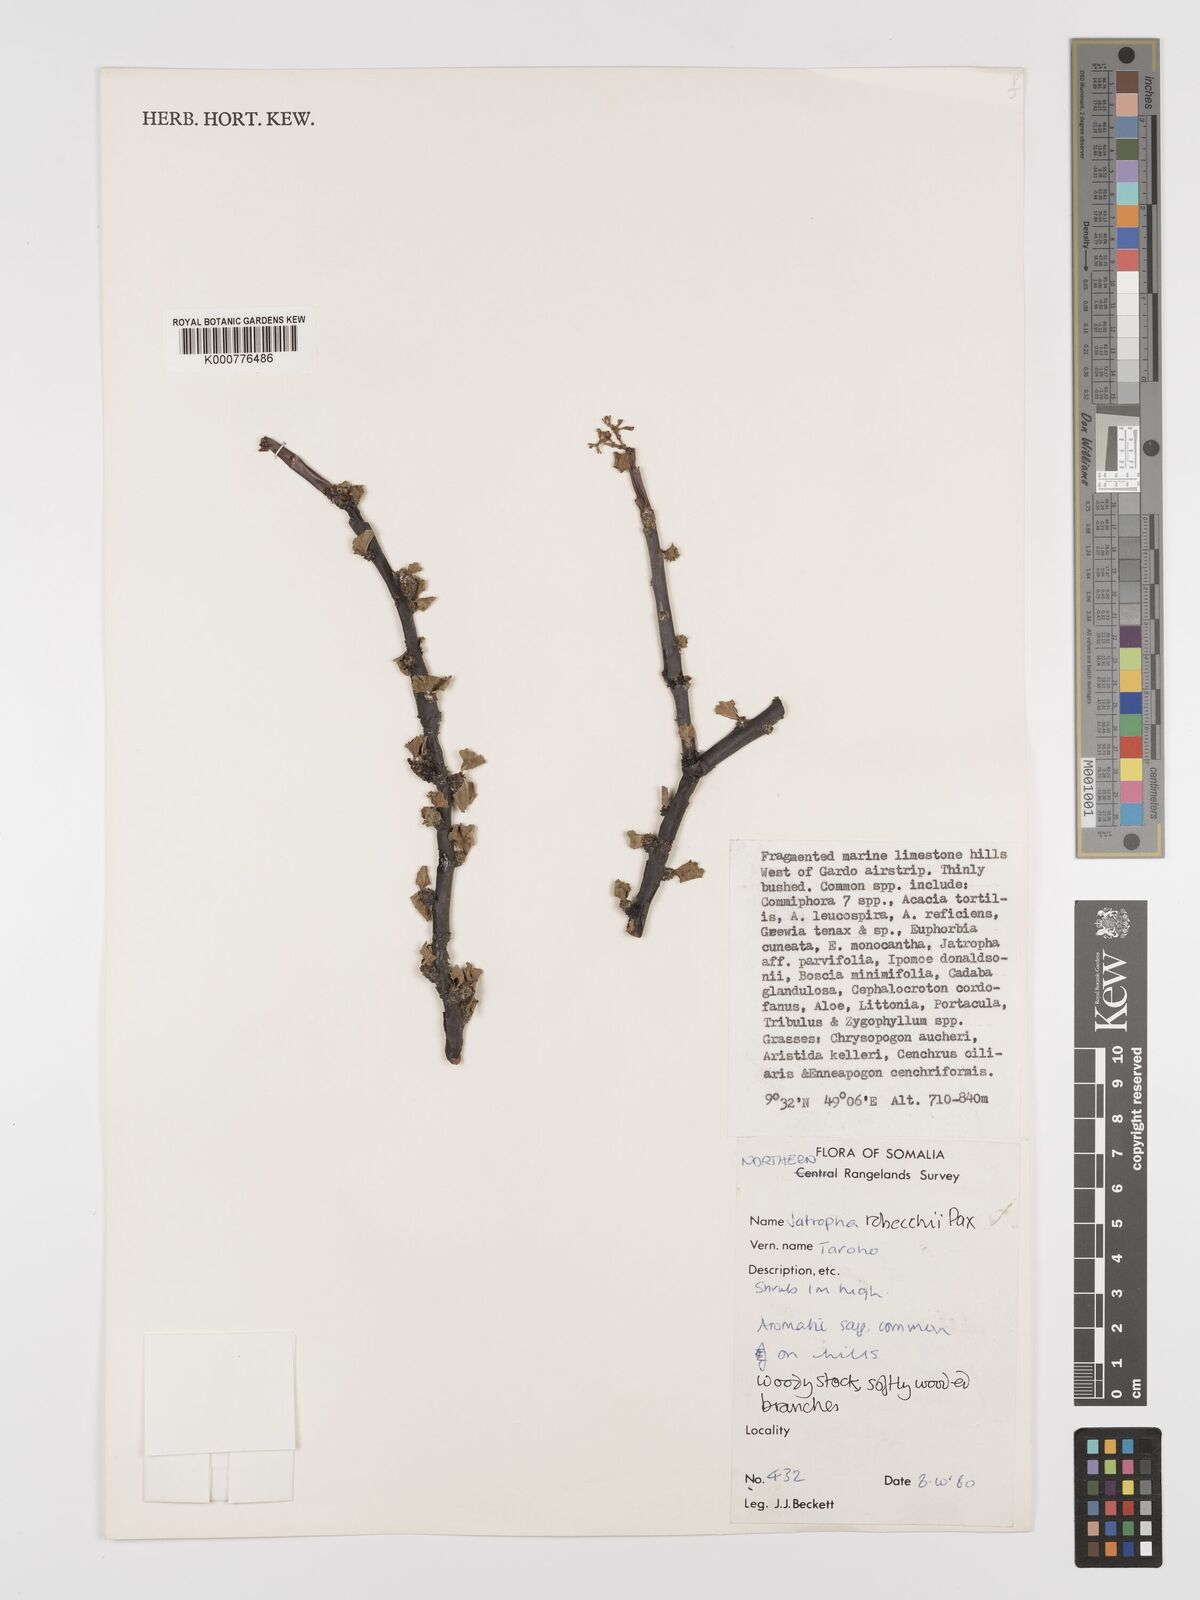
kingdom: Plantae
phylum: Tracheophyta
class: Magnoliopsida
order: Malpighiales
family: Euphorbiaceae
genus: Jatropha
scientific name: Jatropha robecchii
